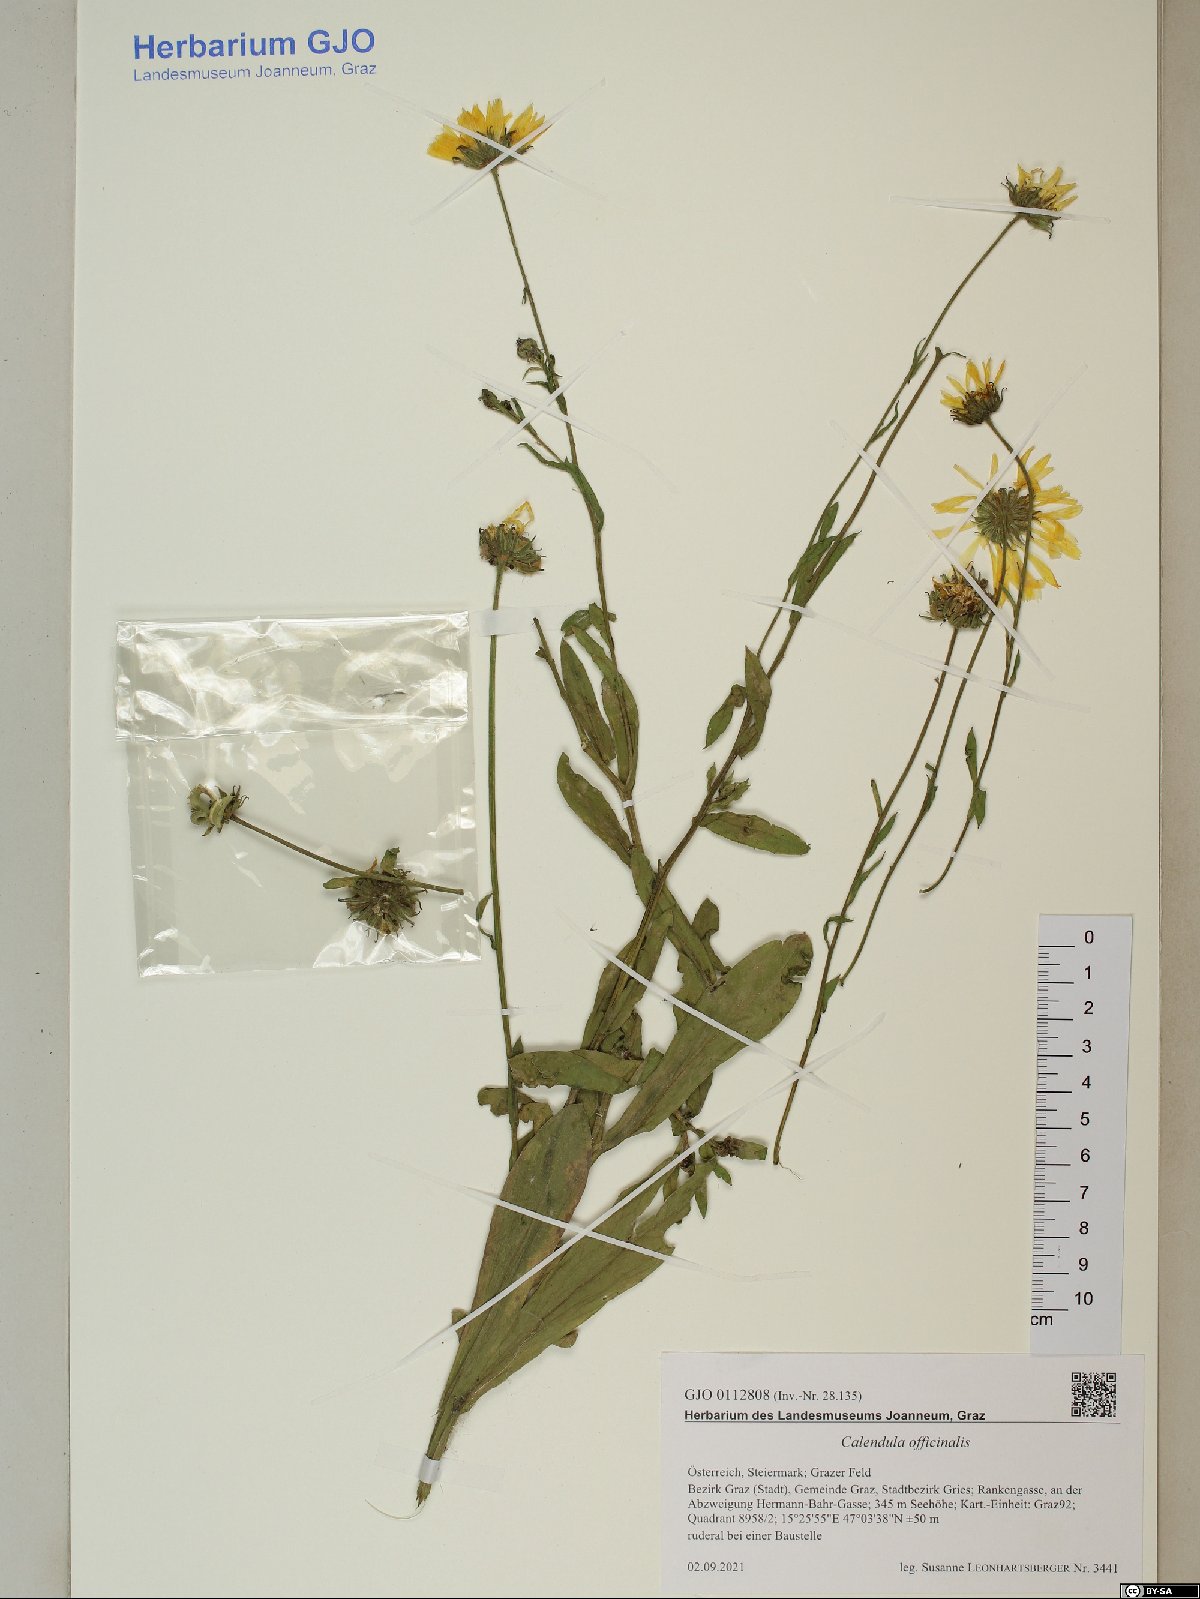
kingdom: Plantae
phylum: Tracheophyta
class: Magnoliopsida
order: Asterales
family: Asteraceae
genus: Calendula
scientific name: Calendula officinalis
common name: Pot marigold
